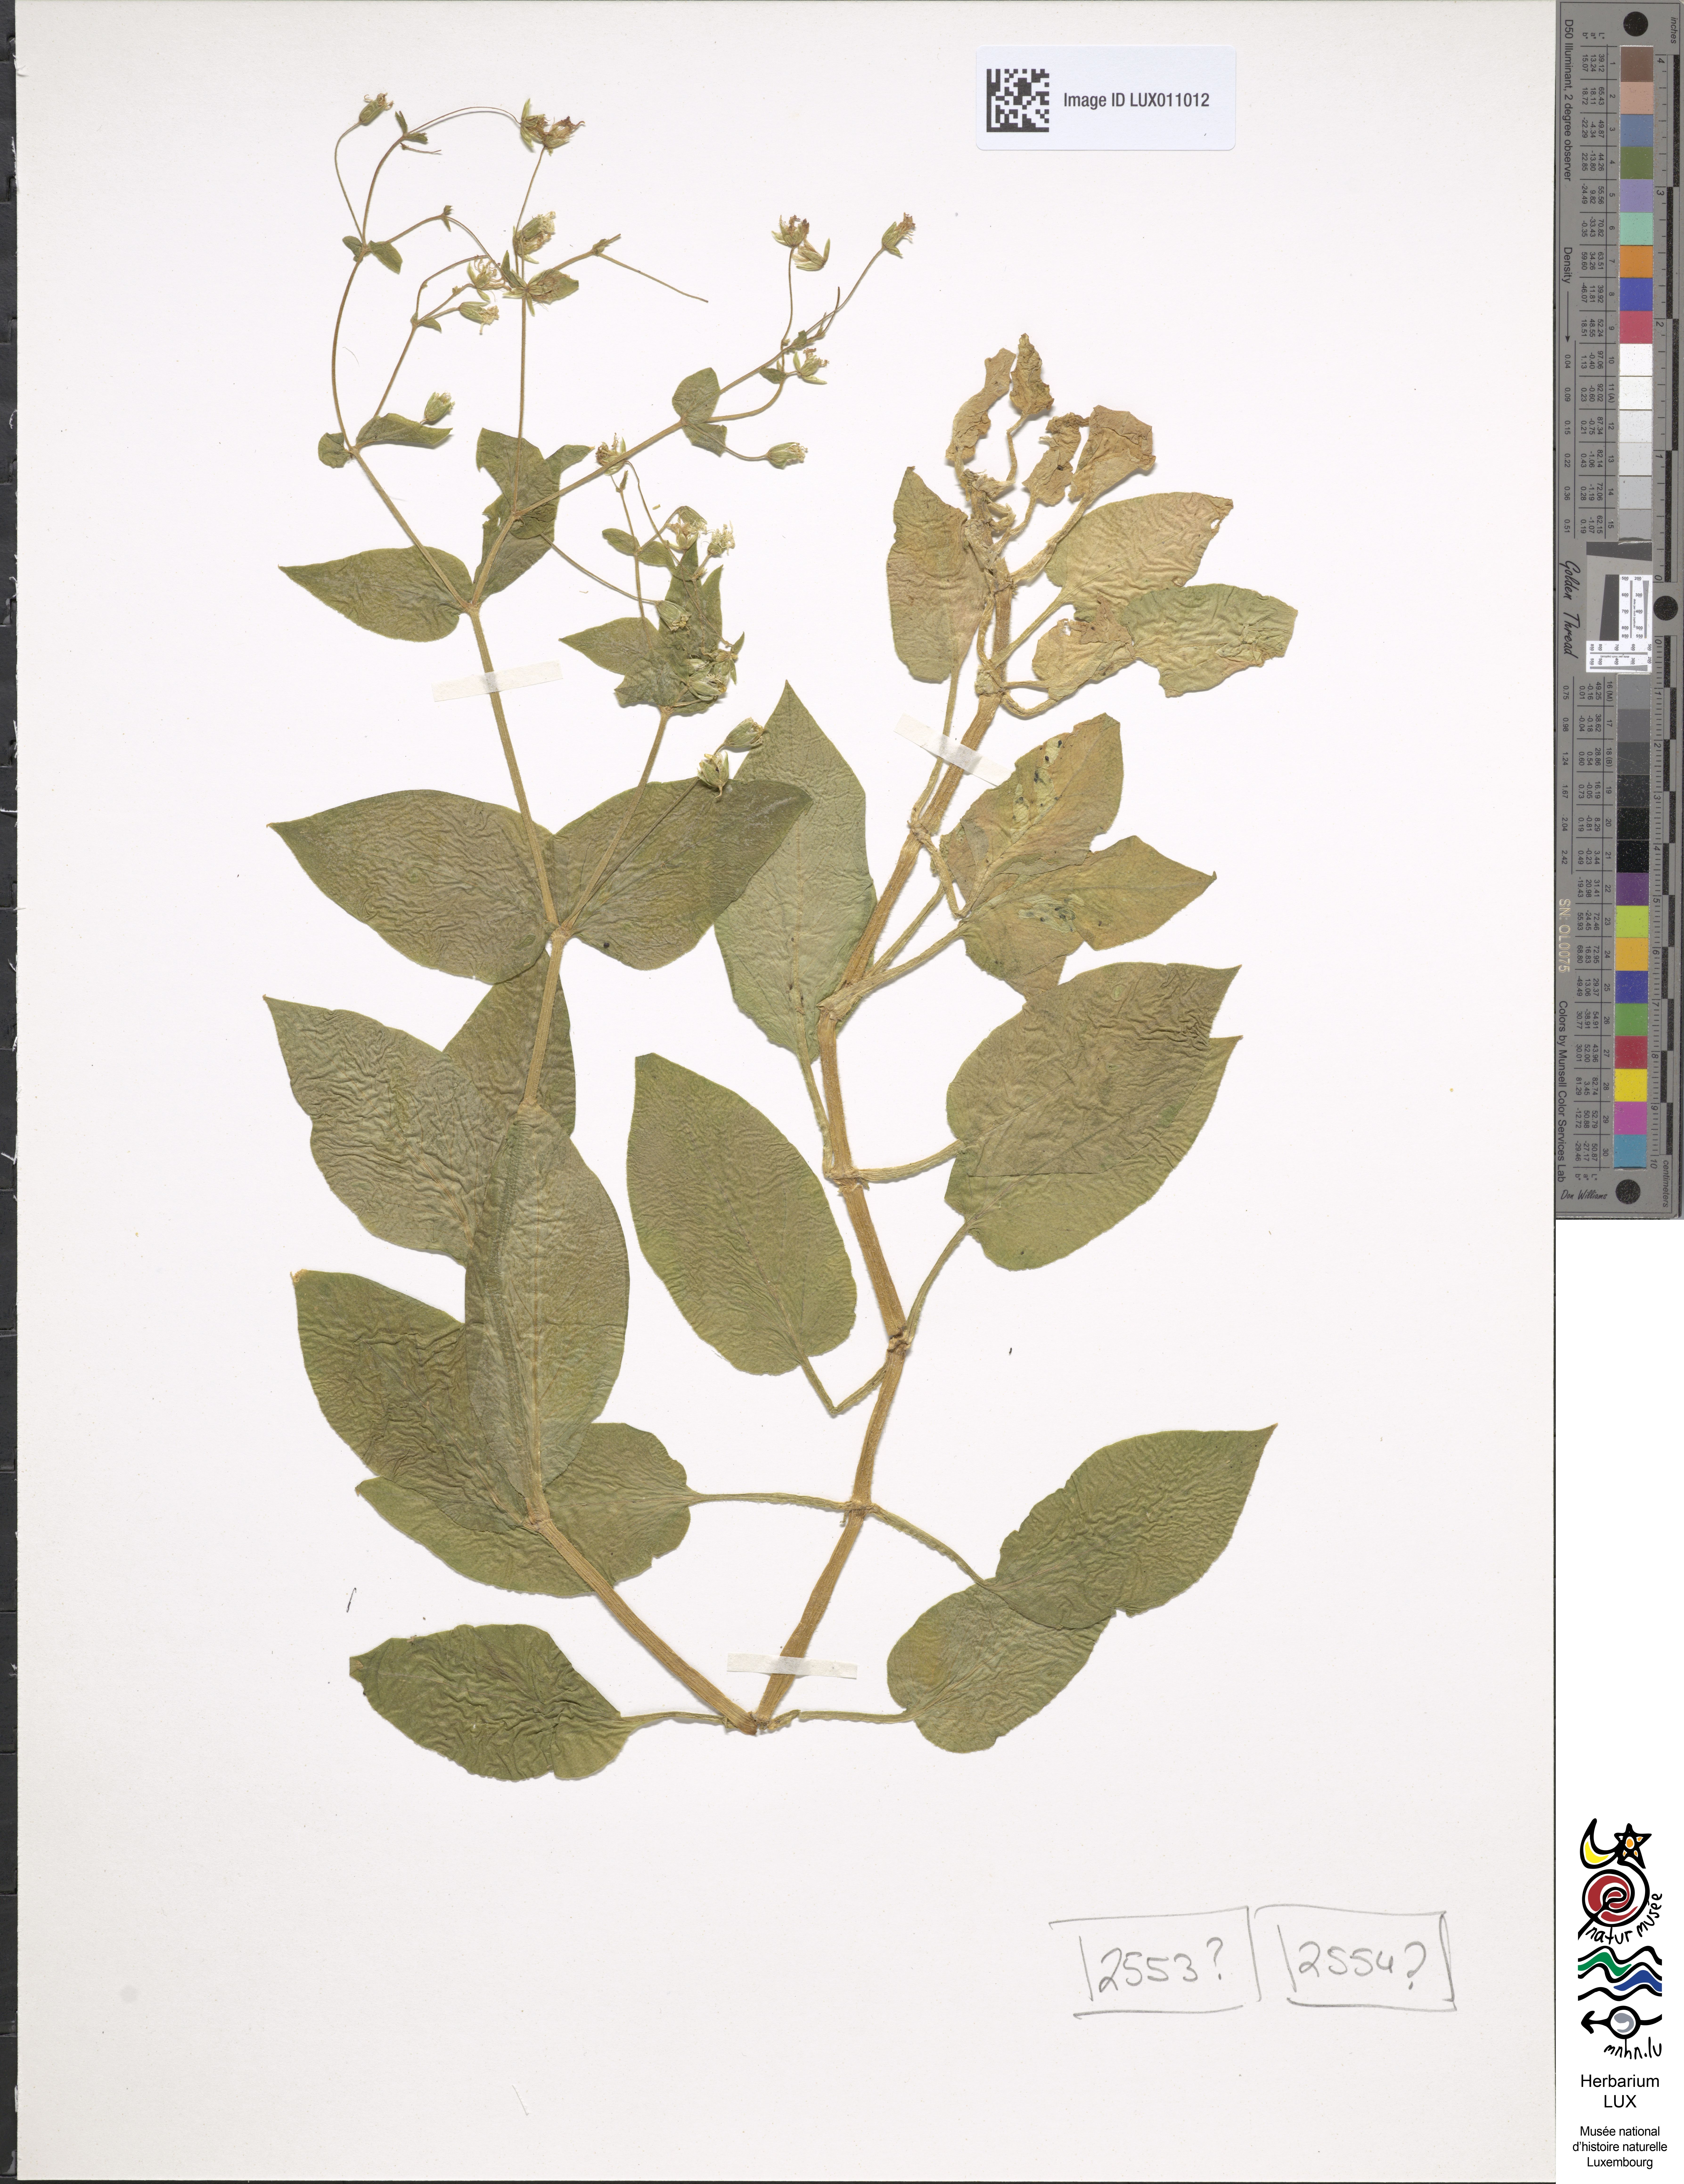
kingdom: Plantae
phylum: Tracheophyta
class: Magnoliopsida
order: Caryophyllales
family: Caryophyllaceae
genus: Stellaria
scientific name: Stellaria nemorum
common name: Wood stitchwort
